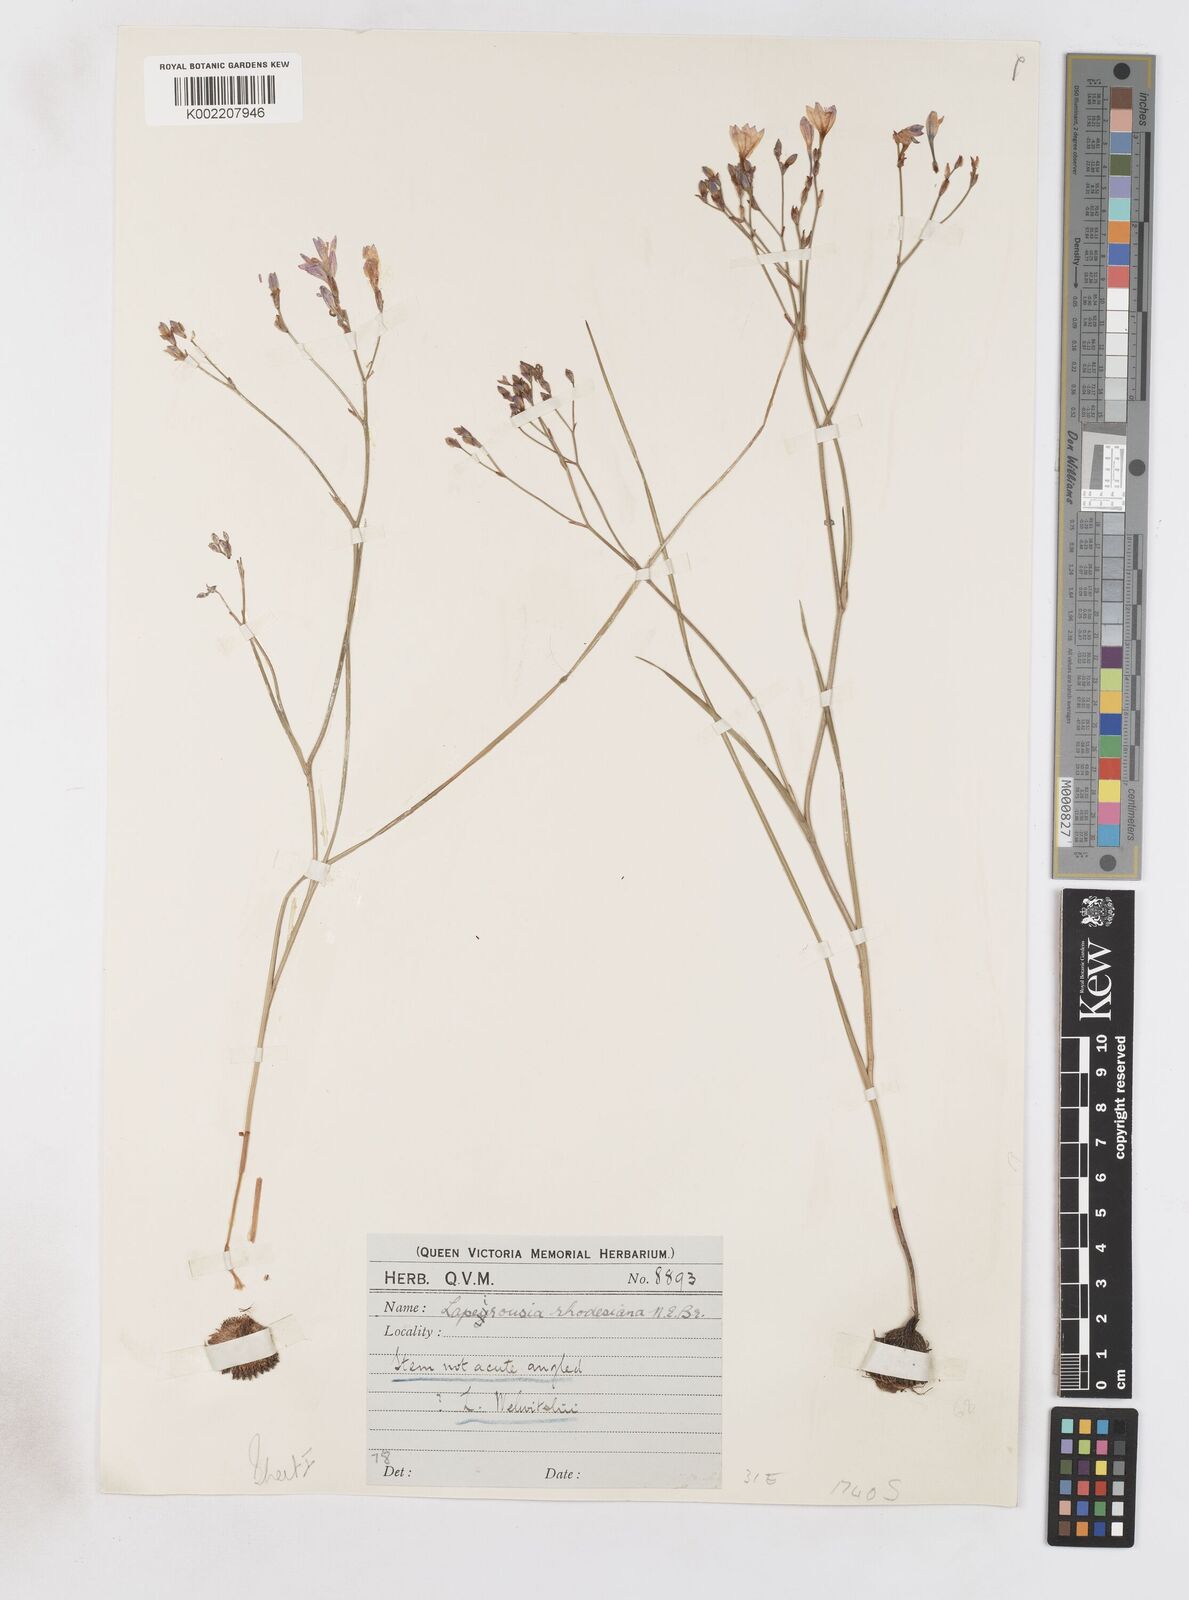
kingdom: Plantae
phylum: Tracheophyta
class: Liliopsida
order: Asparagales
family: Iridaceae
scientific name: Iridaceae
